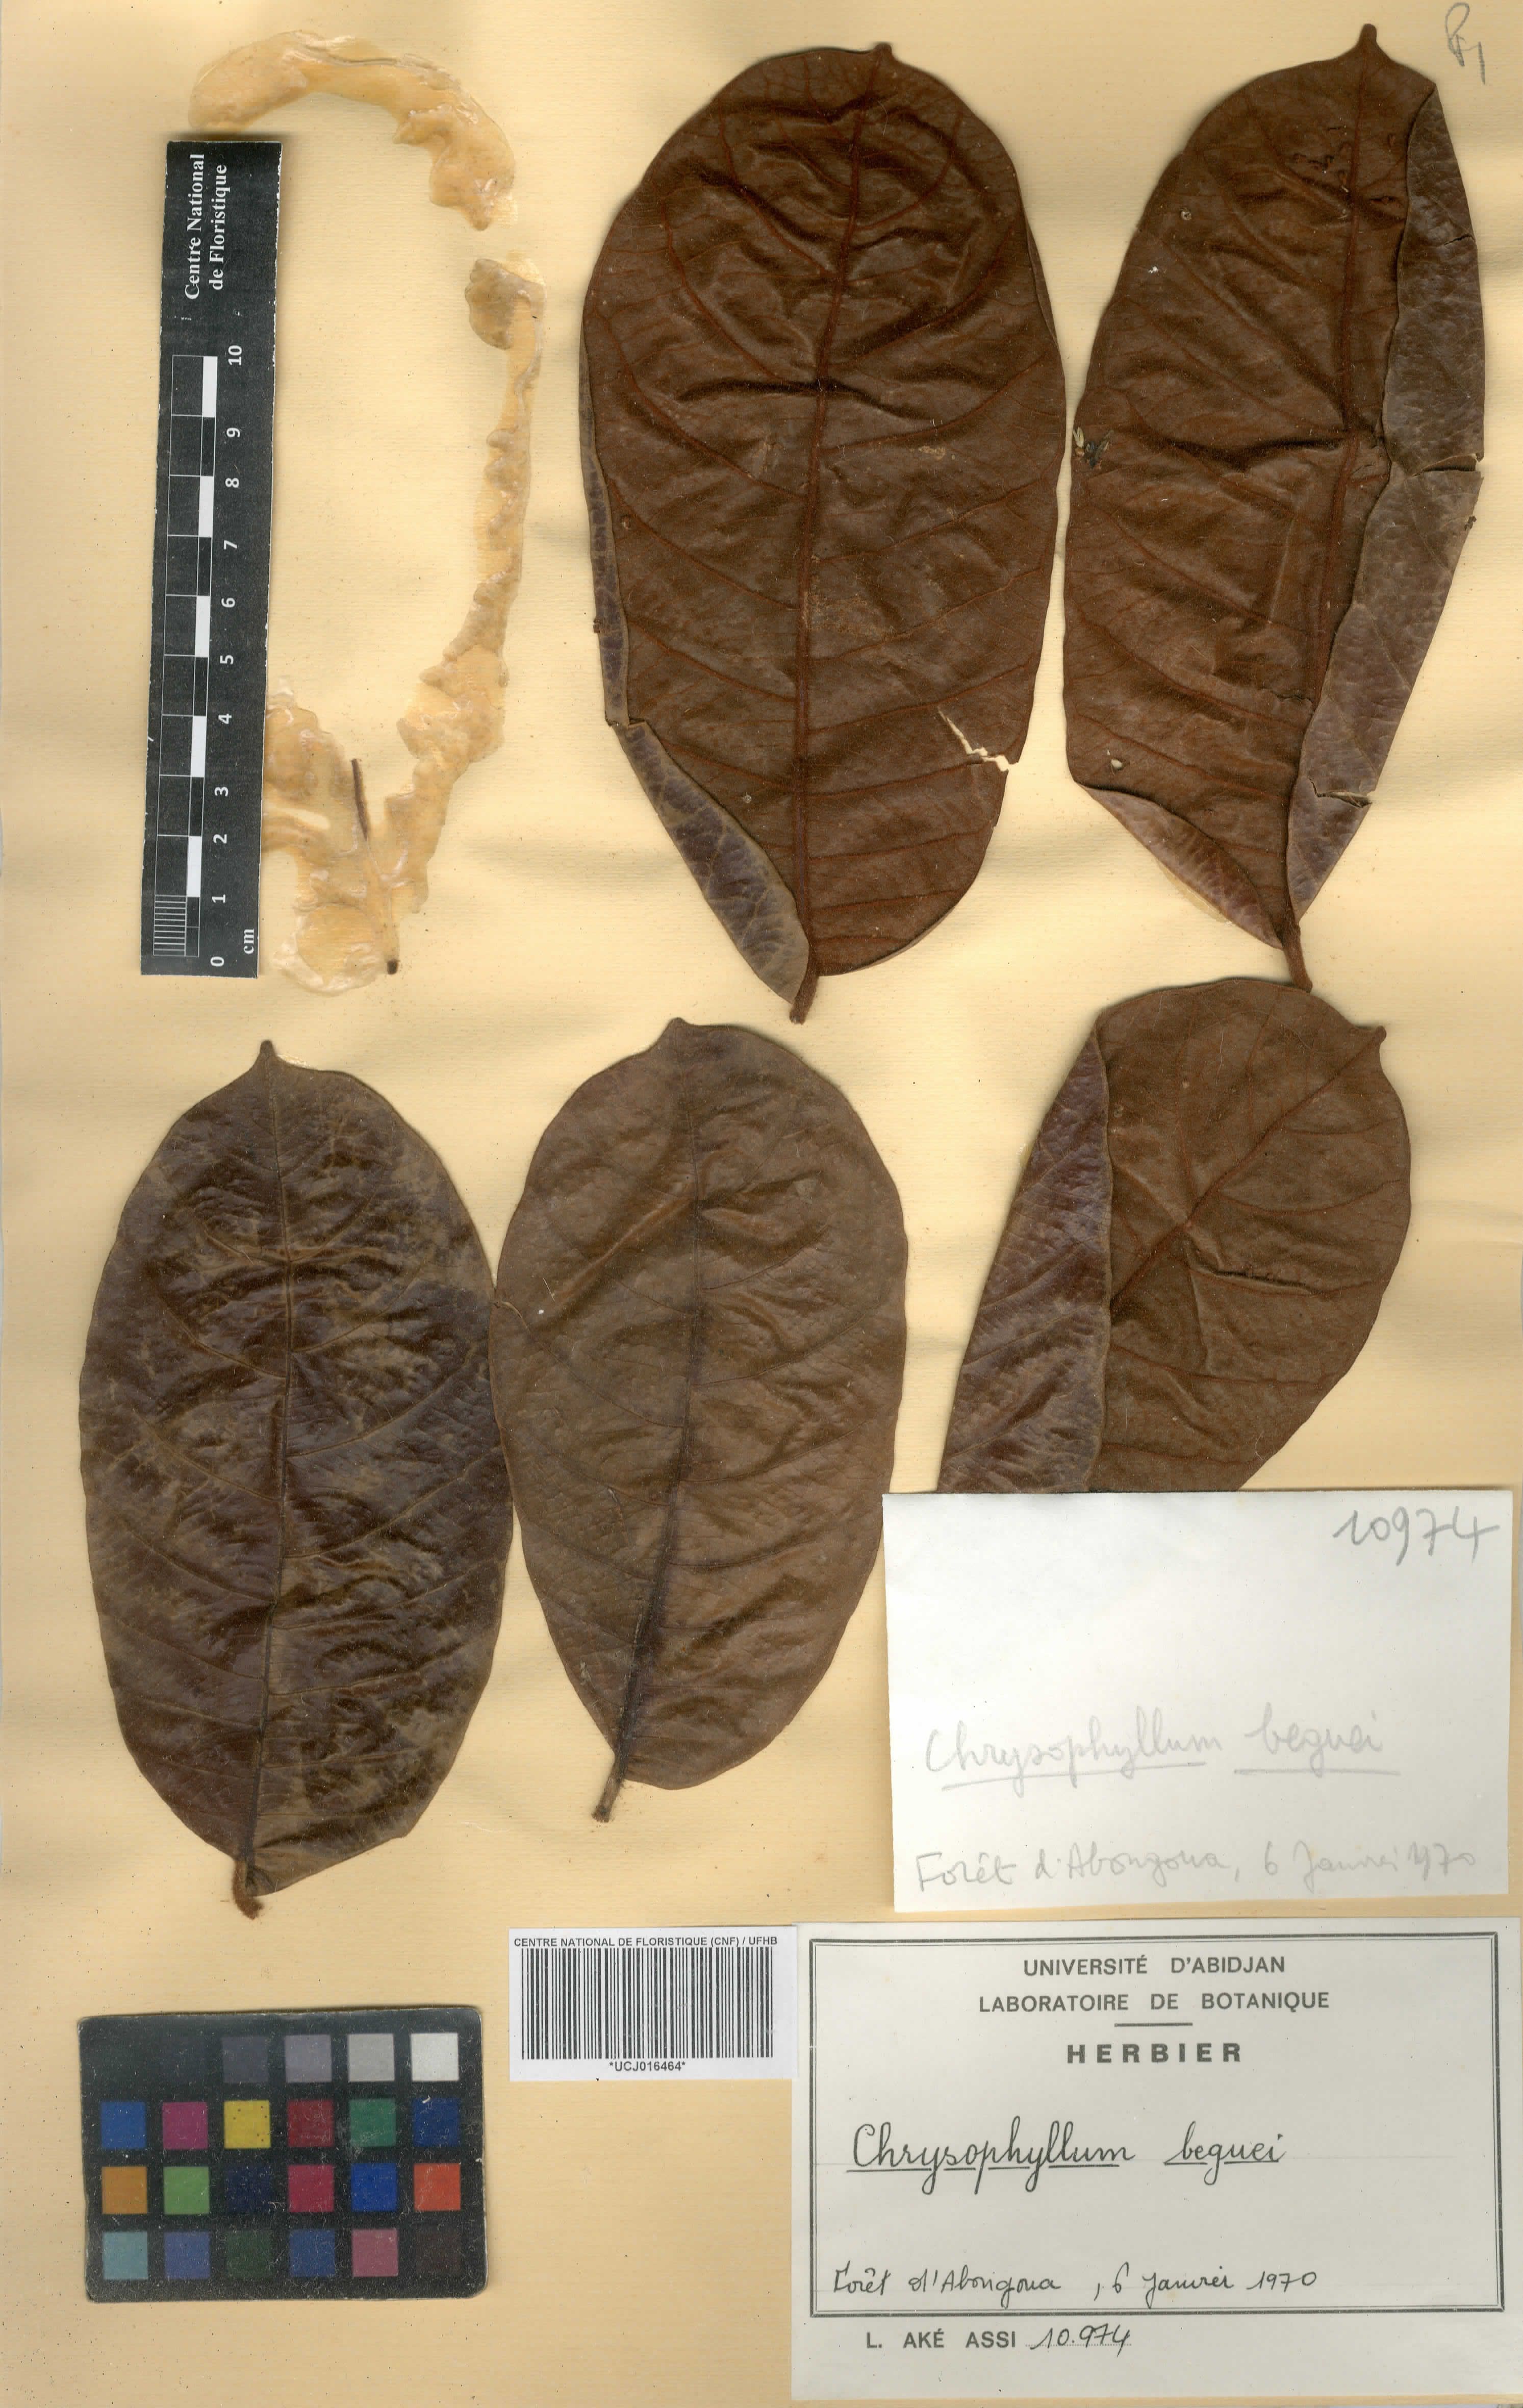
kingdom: Plantae
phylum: Tracheophyta
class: Magnoliopsida
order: Ericales
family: Sapotaceae
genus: Gambeya
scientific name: Gambeya beguei
